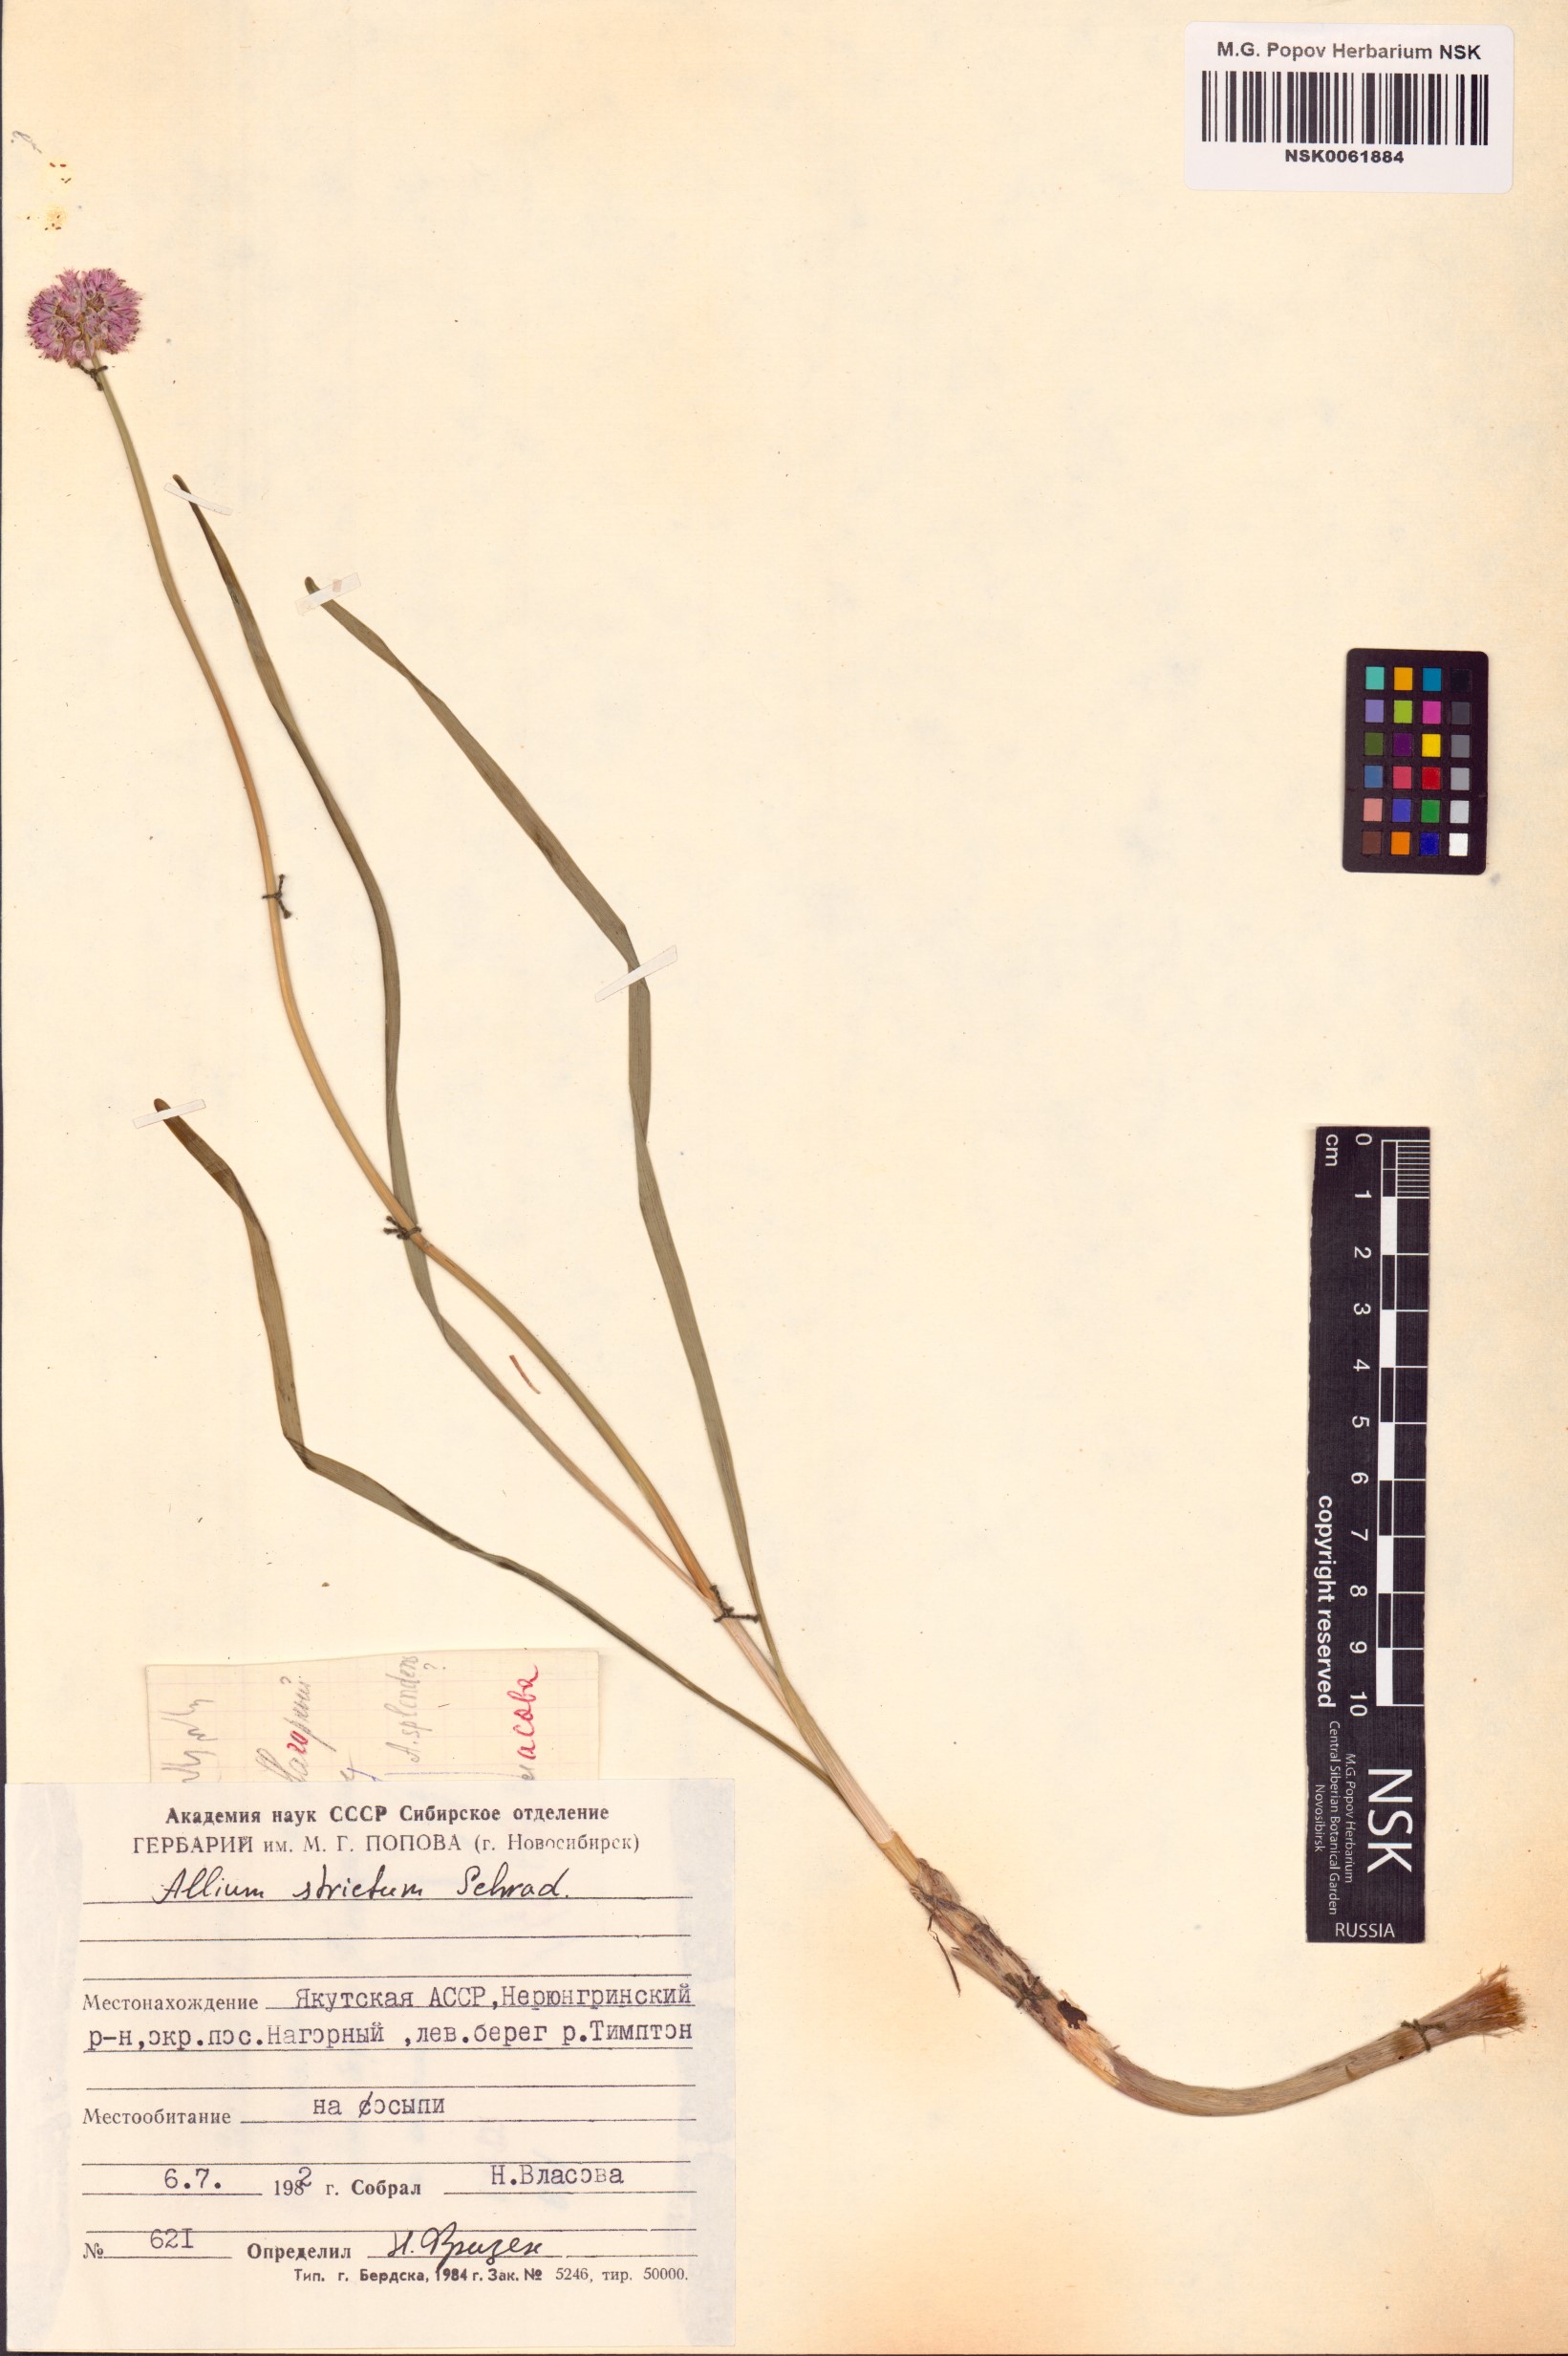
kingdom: Plantae
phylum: Tracheophyta
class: Liliopsida
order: Asparagales
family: Amaryllidaceae
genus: Allium
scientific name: Allium strictum
